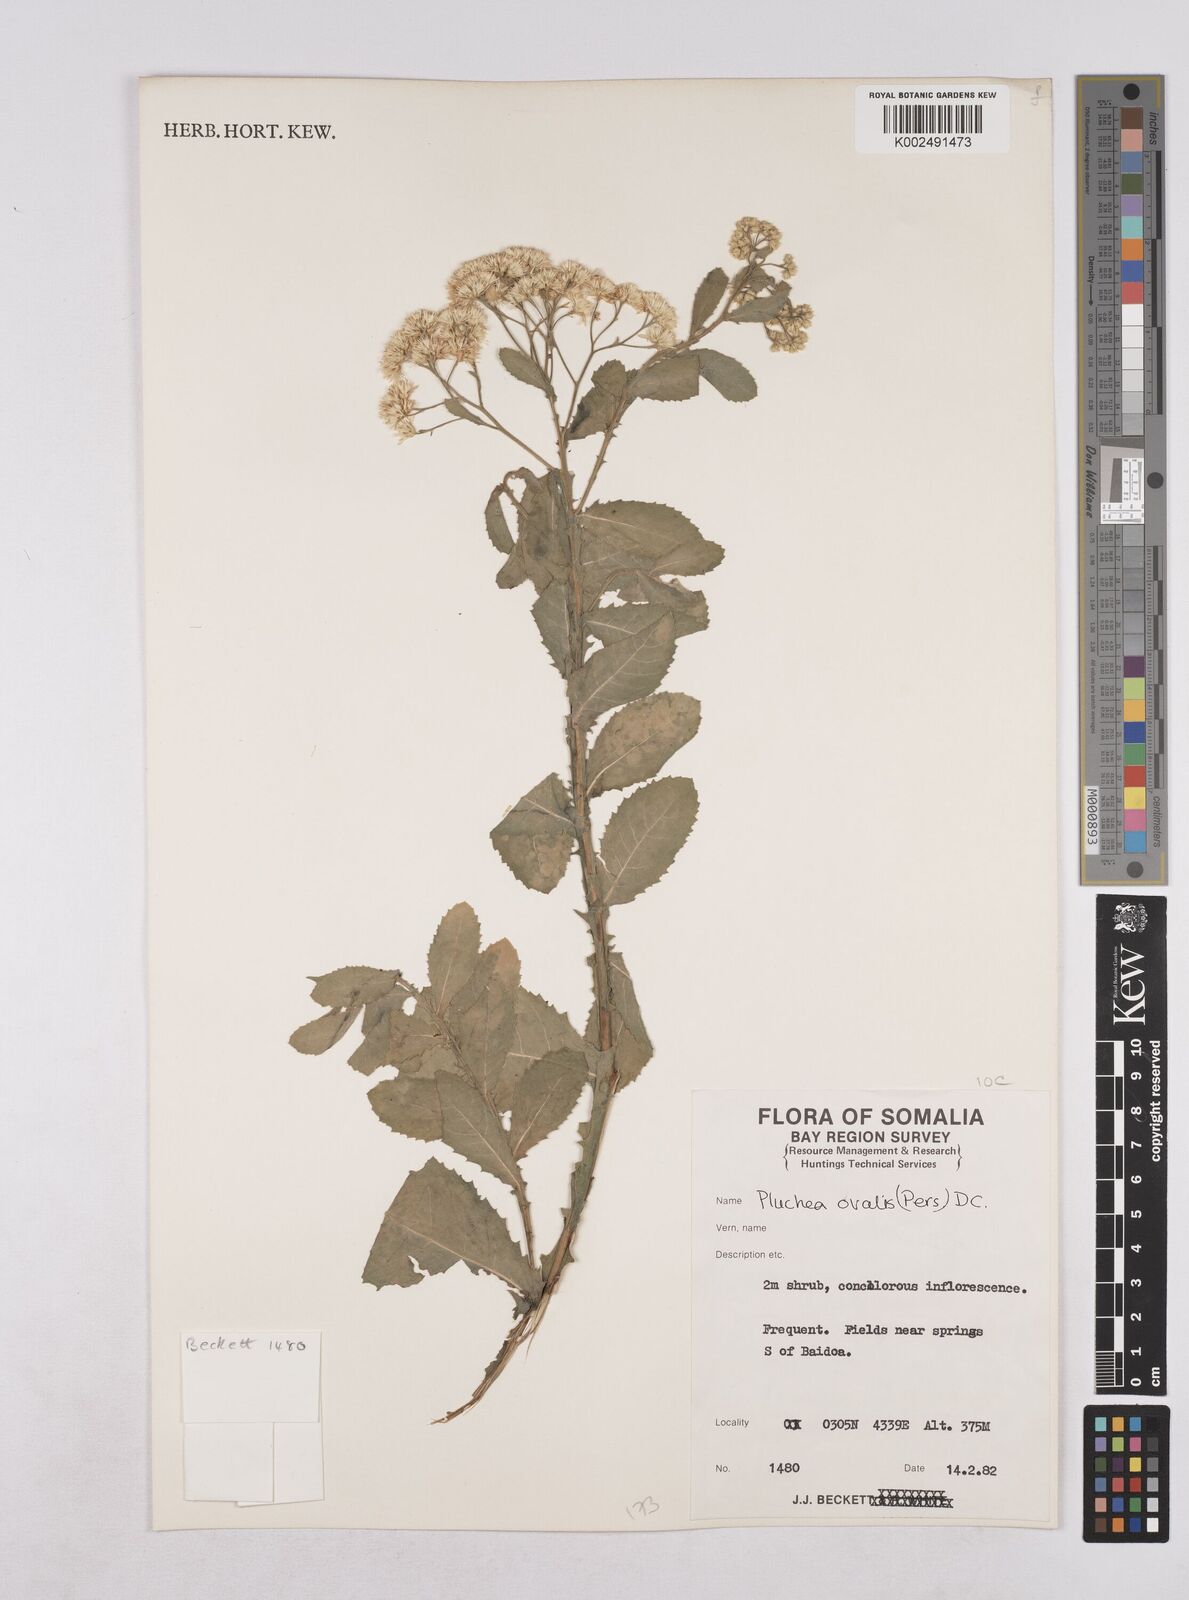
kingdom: Plantae
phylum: Tracheophyta
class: Magnoliopsida
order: Asterales
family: Asteraceae
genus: Pluchea
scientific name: Pluchea ovalis
